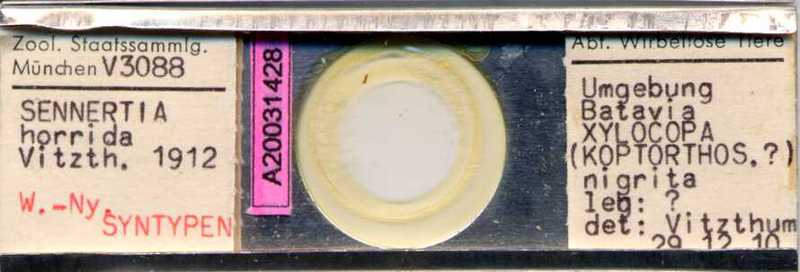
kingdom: Animalia
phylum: Arthropoda
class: Arachnida
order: Sarcoptiformes
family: Chaetodactylidae
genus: Sennertia
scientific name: Sennertia horrida
